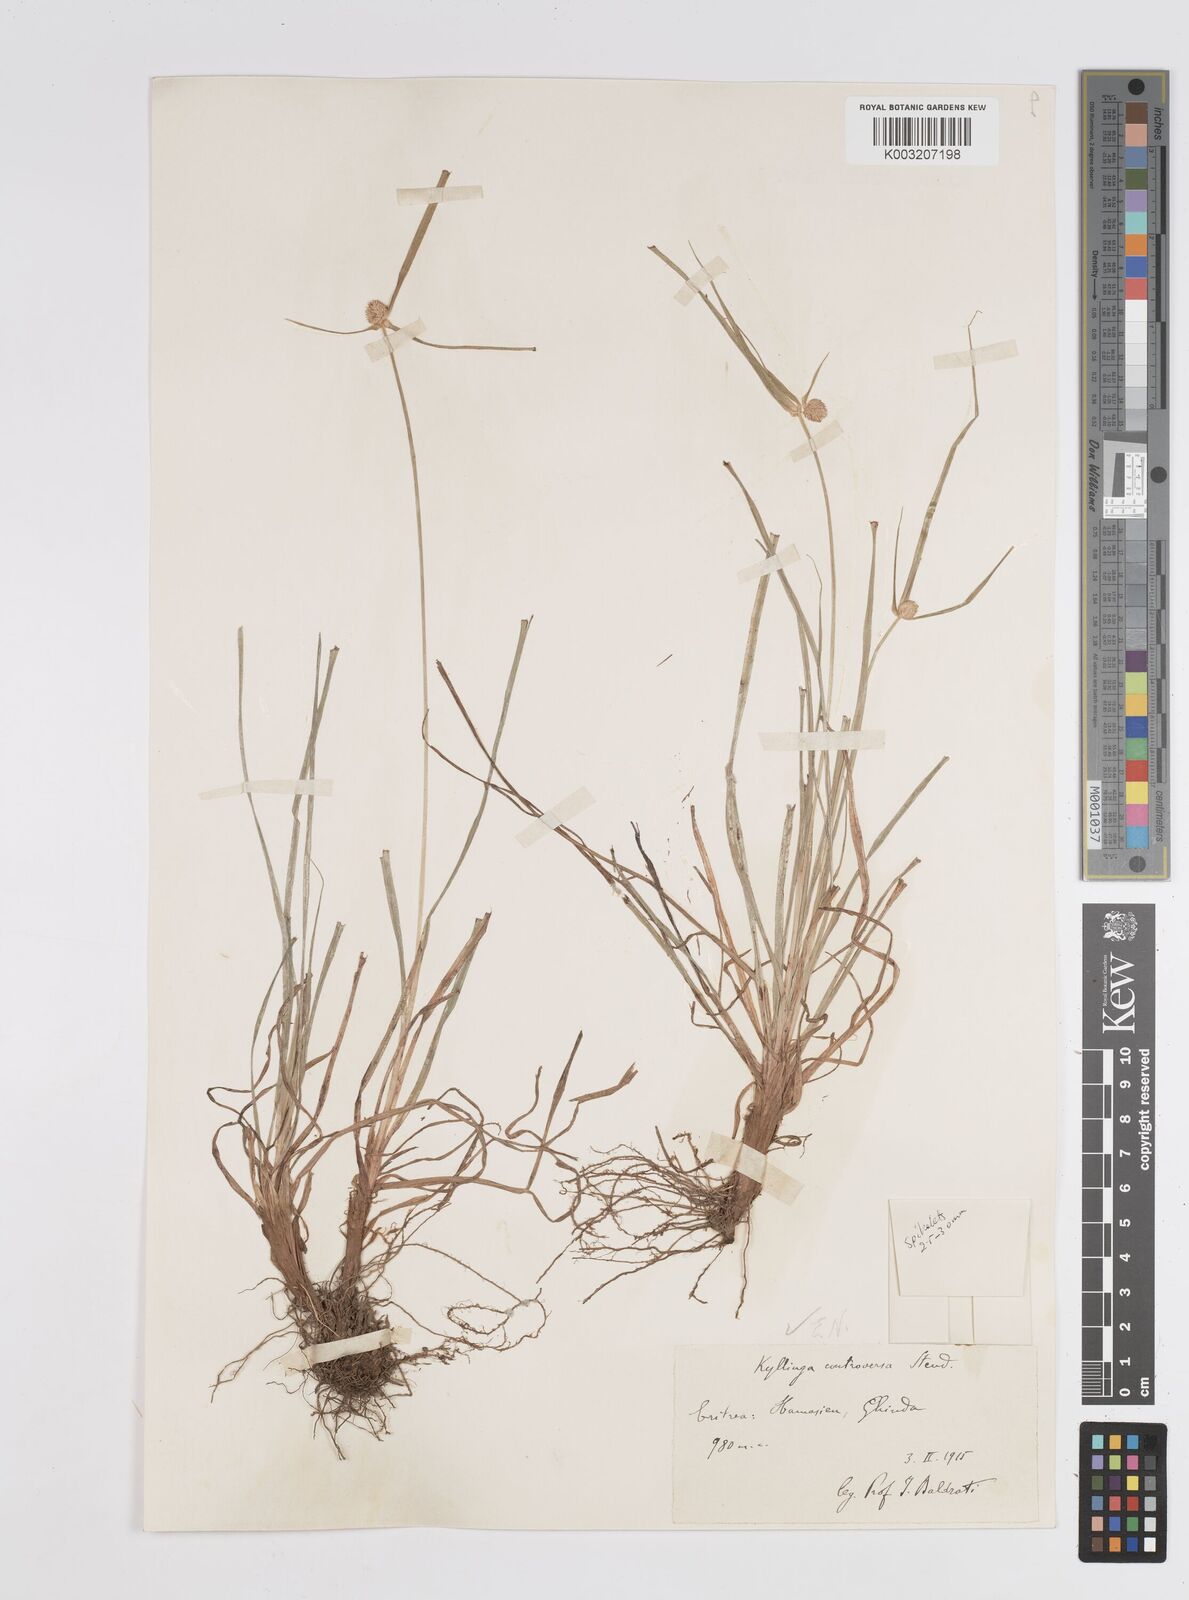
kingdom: Plantae
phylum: Tracheophyta
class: Liliopsida
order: Poales
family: Cyperaceae
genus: Cyperus
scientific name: Cyperus controversus
